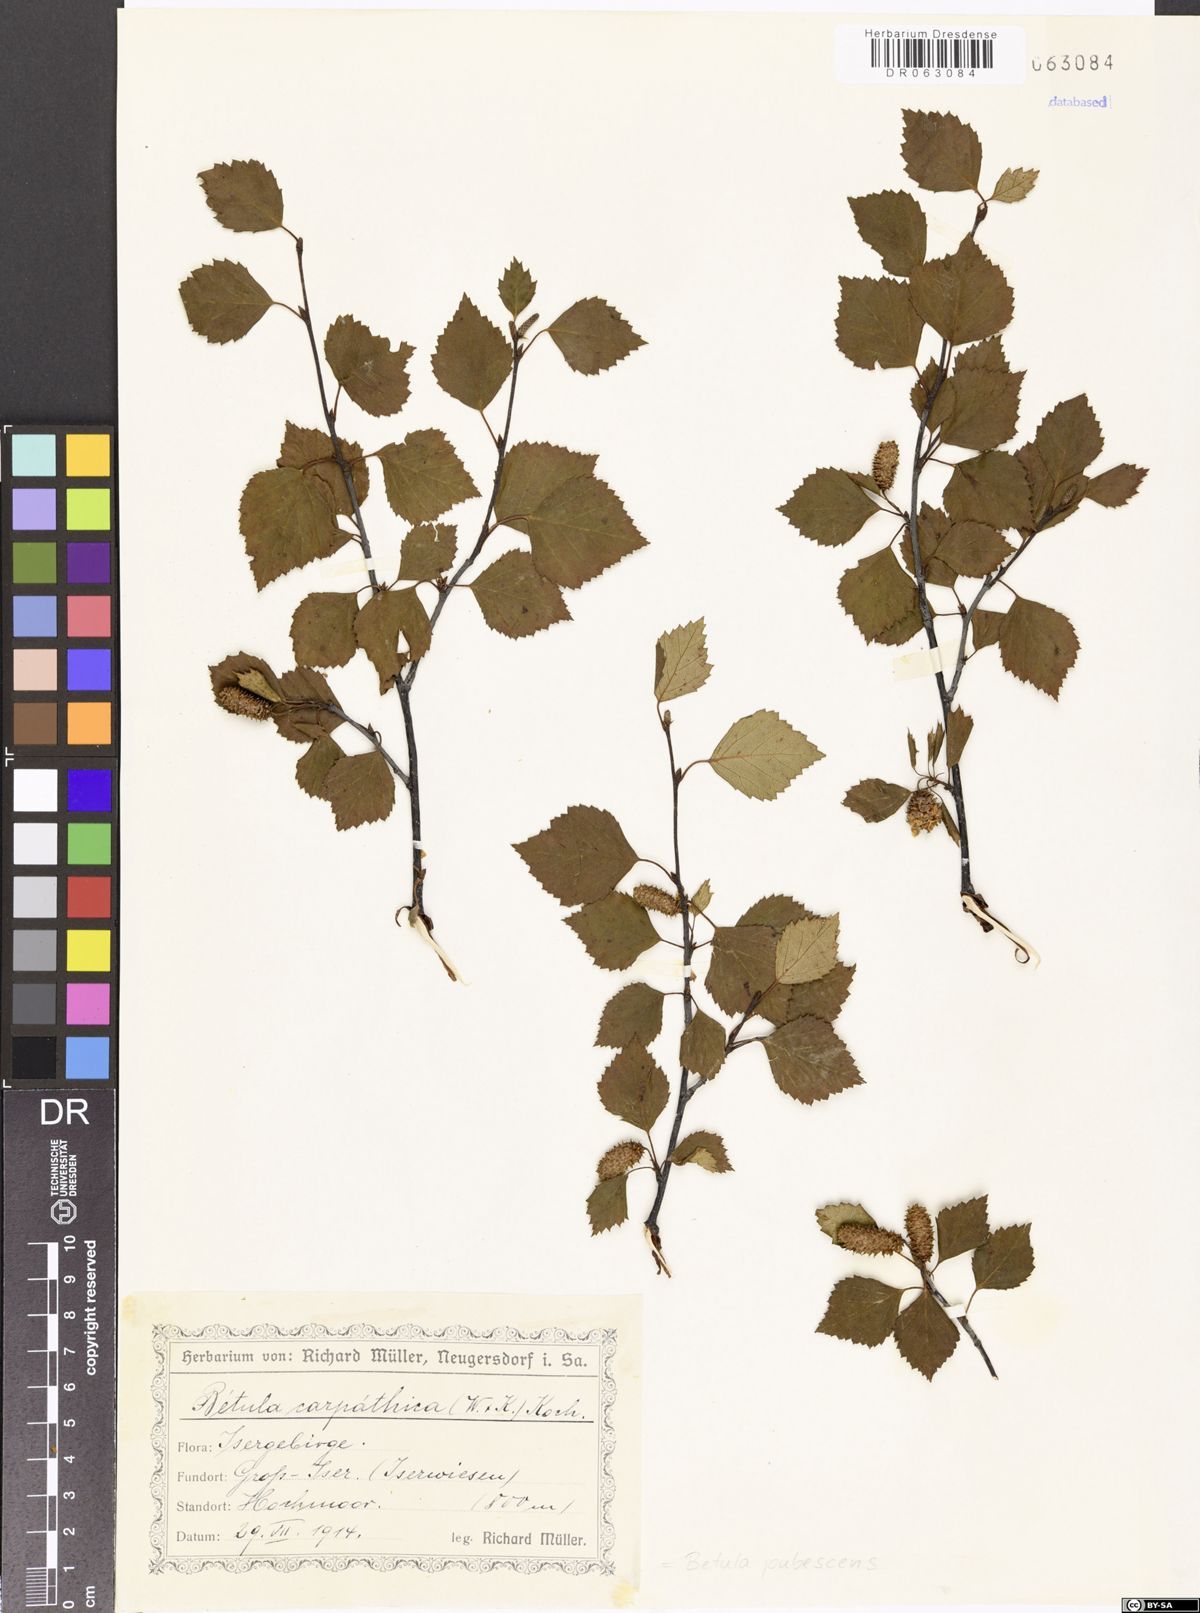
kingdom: Plantae
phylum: Tracheophyta
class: Magnoliopsida
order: Fagales
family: Betulaceae
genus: Betula
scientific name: Betula pubescens
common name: Downy birch
